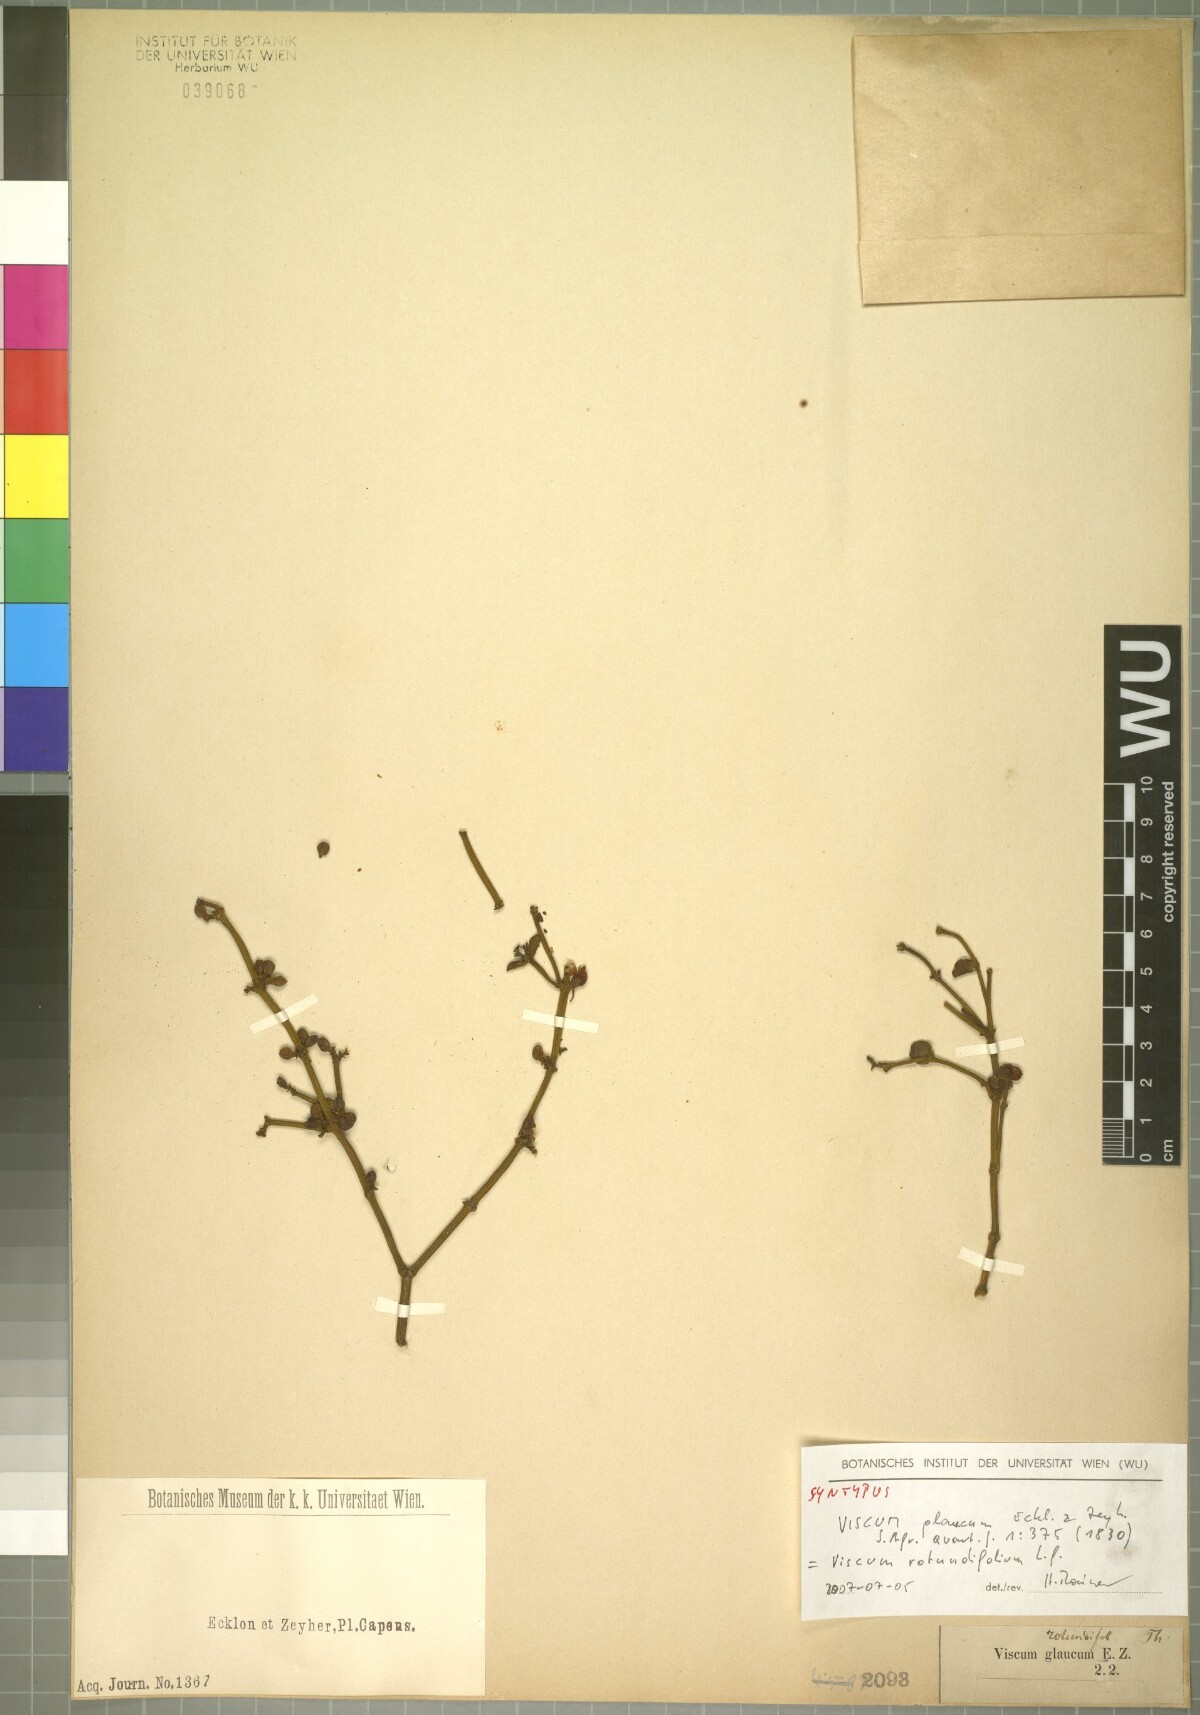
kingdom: Plantae
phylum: Tracheophyta
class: Magnoliopsida
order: Santalales
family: Viscaceae
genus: Viscum
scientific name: Viscum rotundifolium
